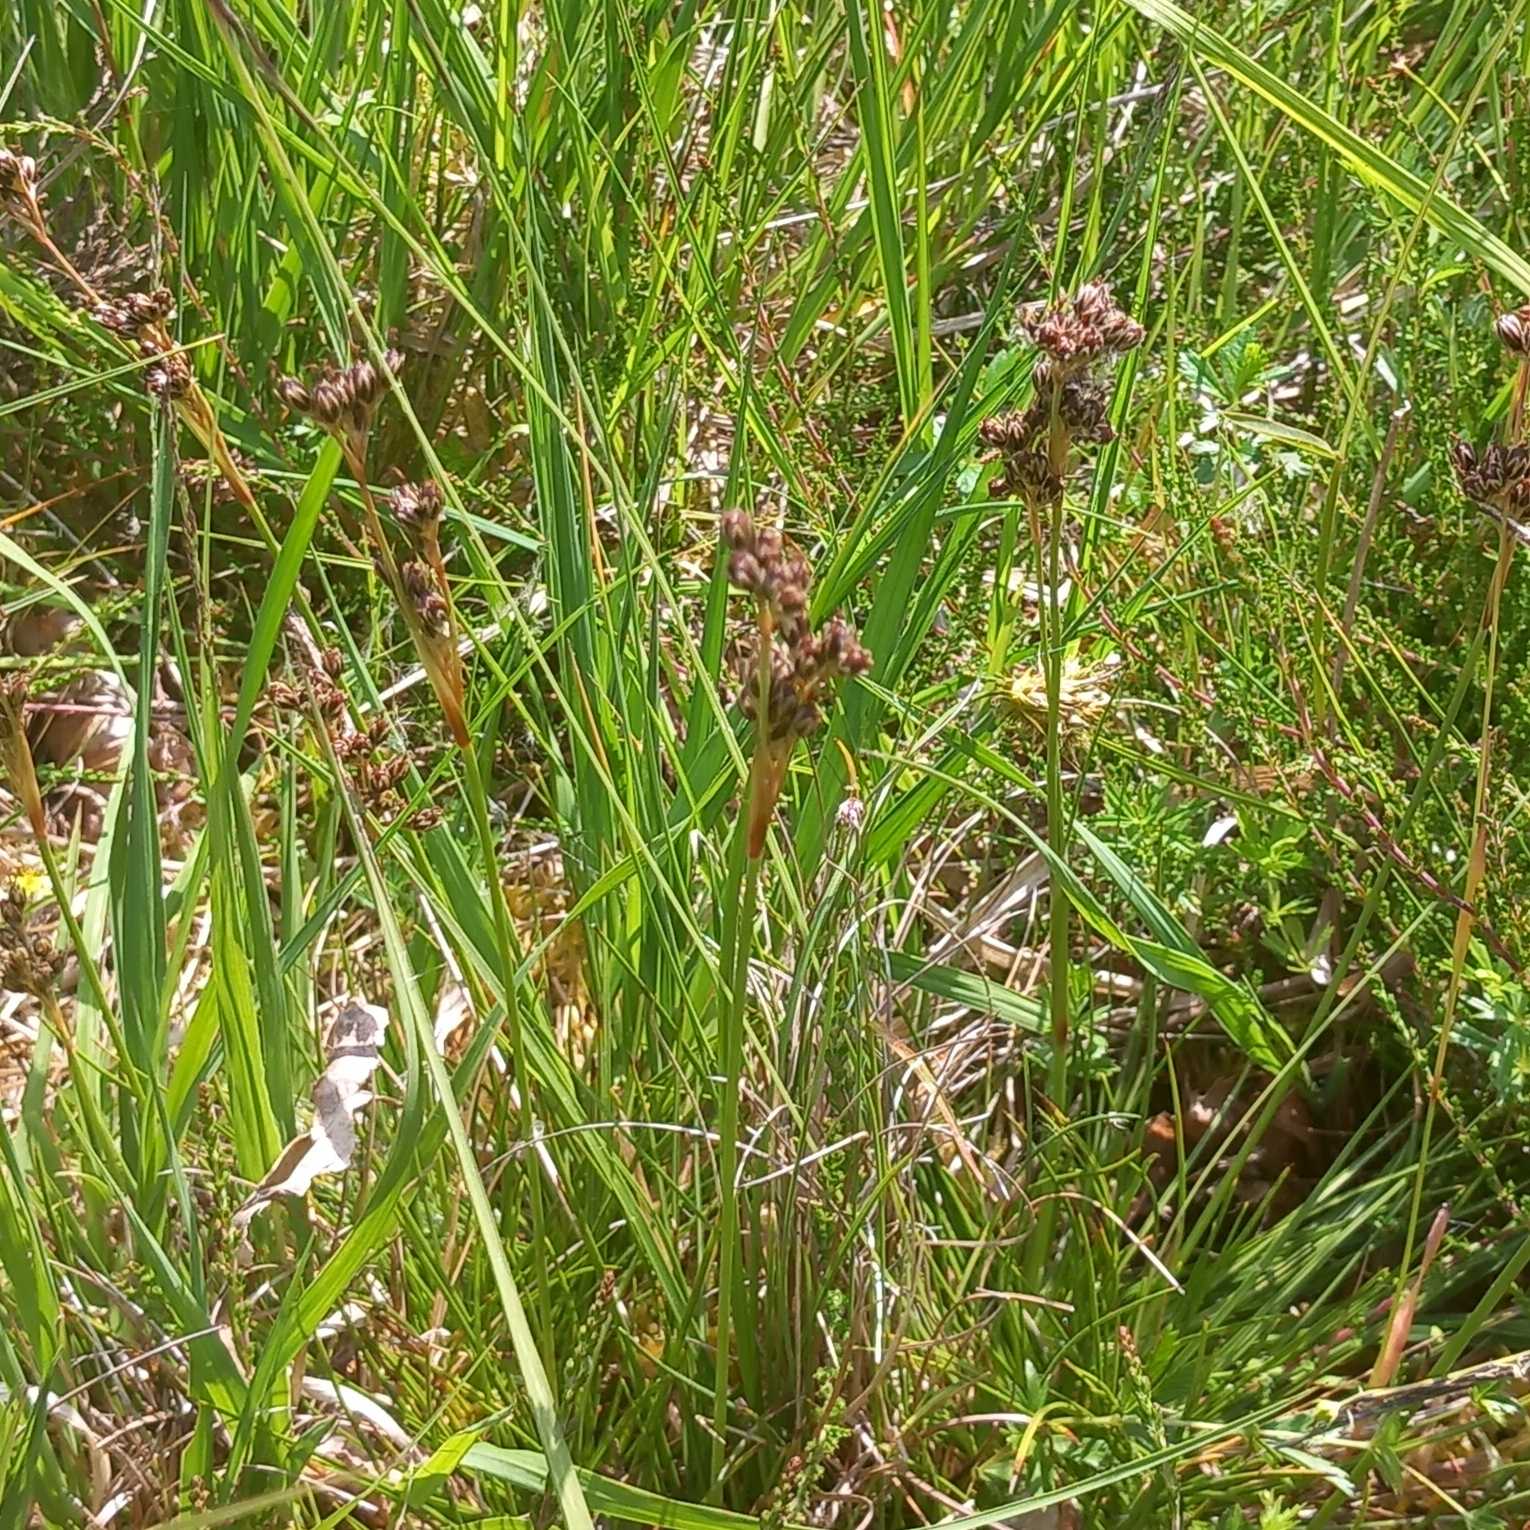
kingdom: Plantae
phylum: Tracheophyta
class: Liliopsida
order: Poales
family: Juncaceae
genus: Juncus
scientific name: Juncus squarrosus
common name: Børste-siv
